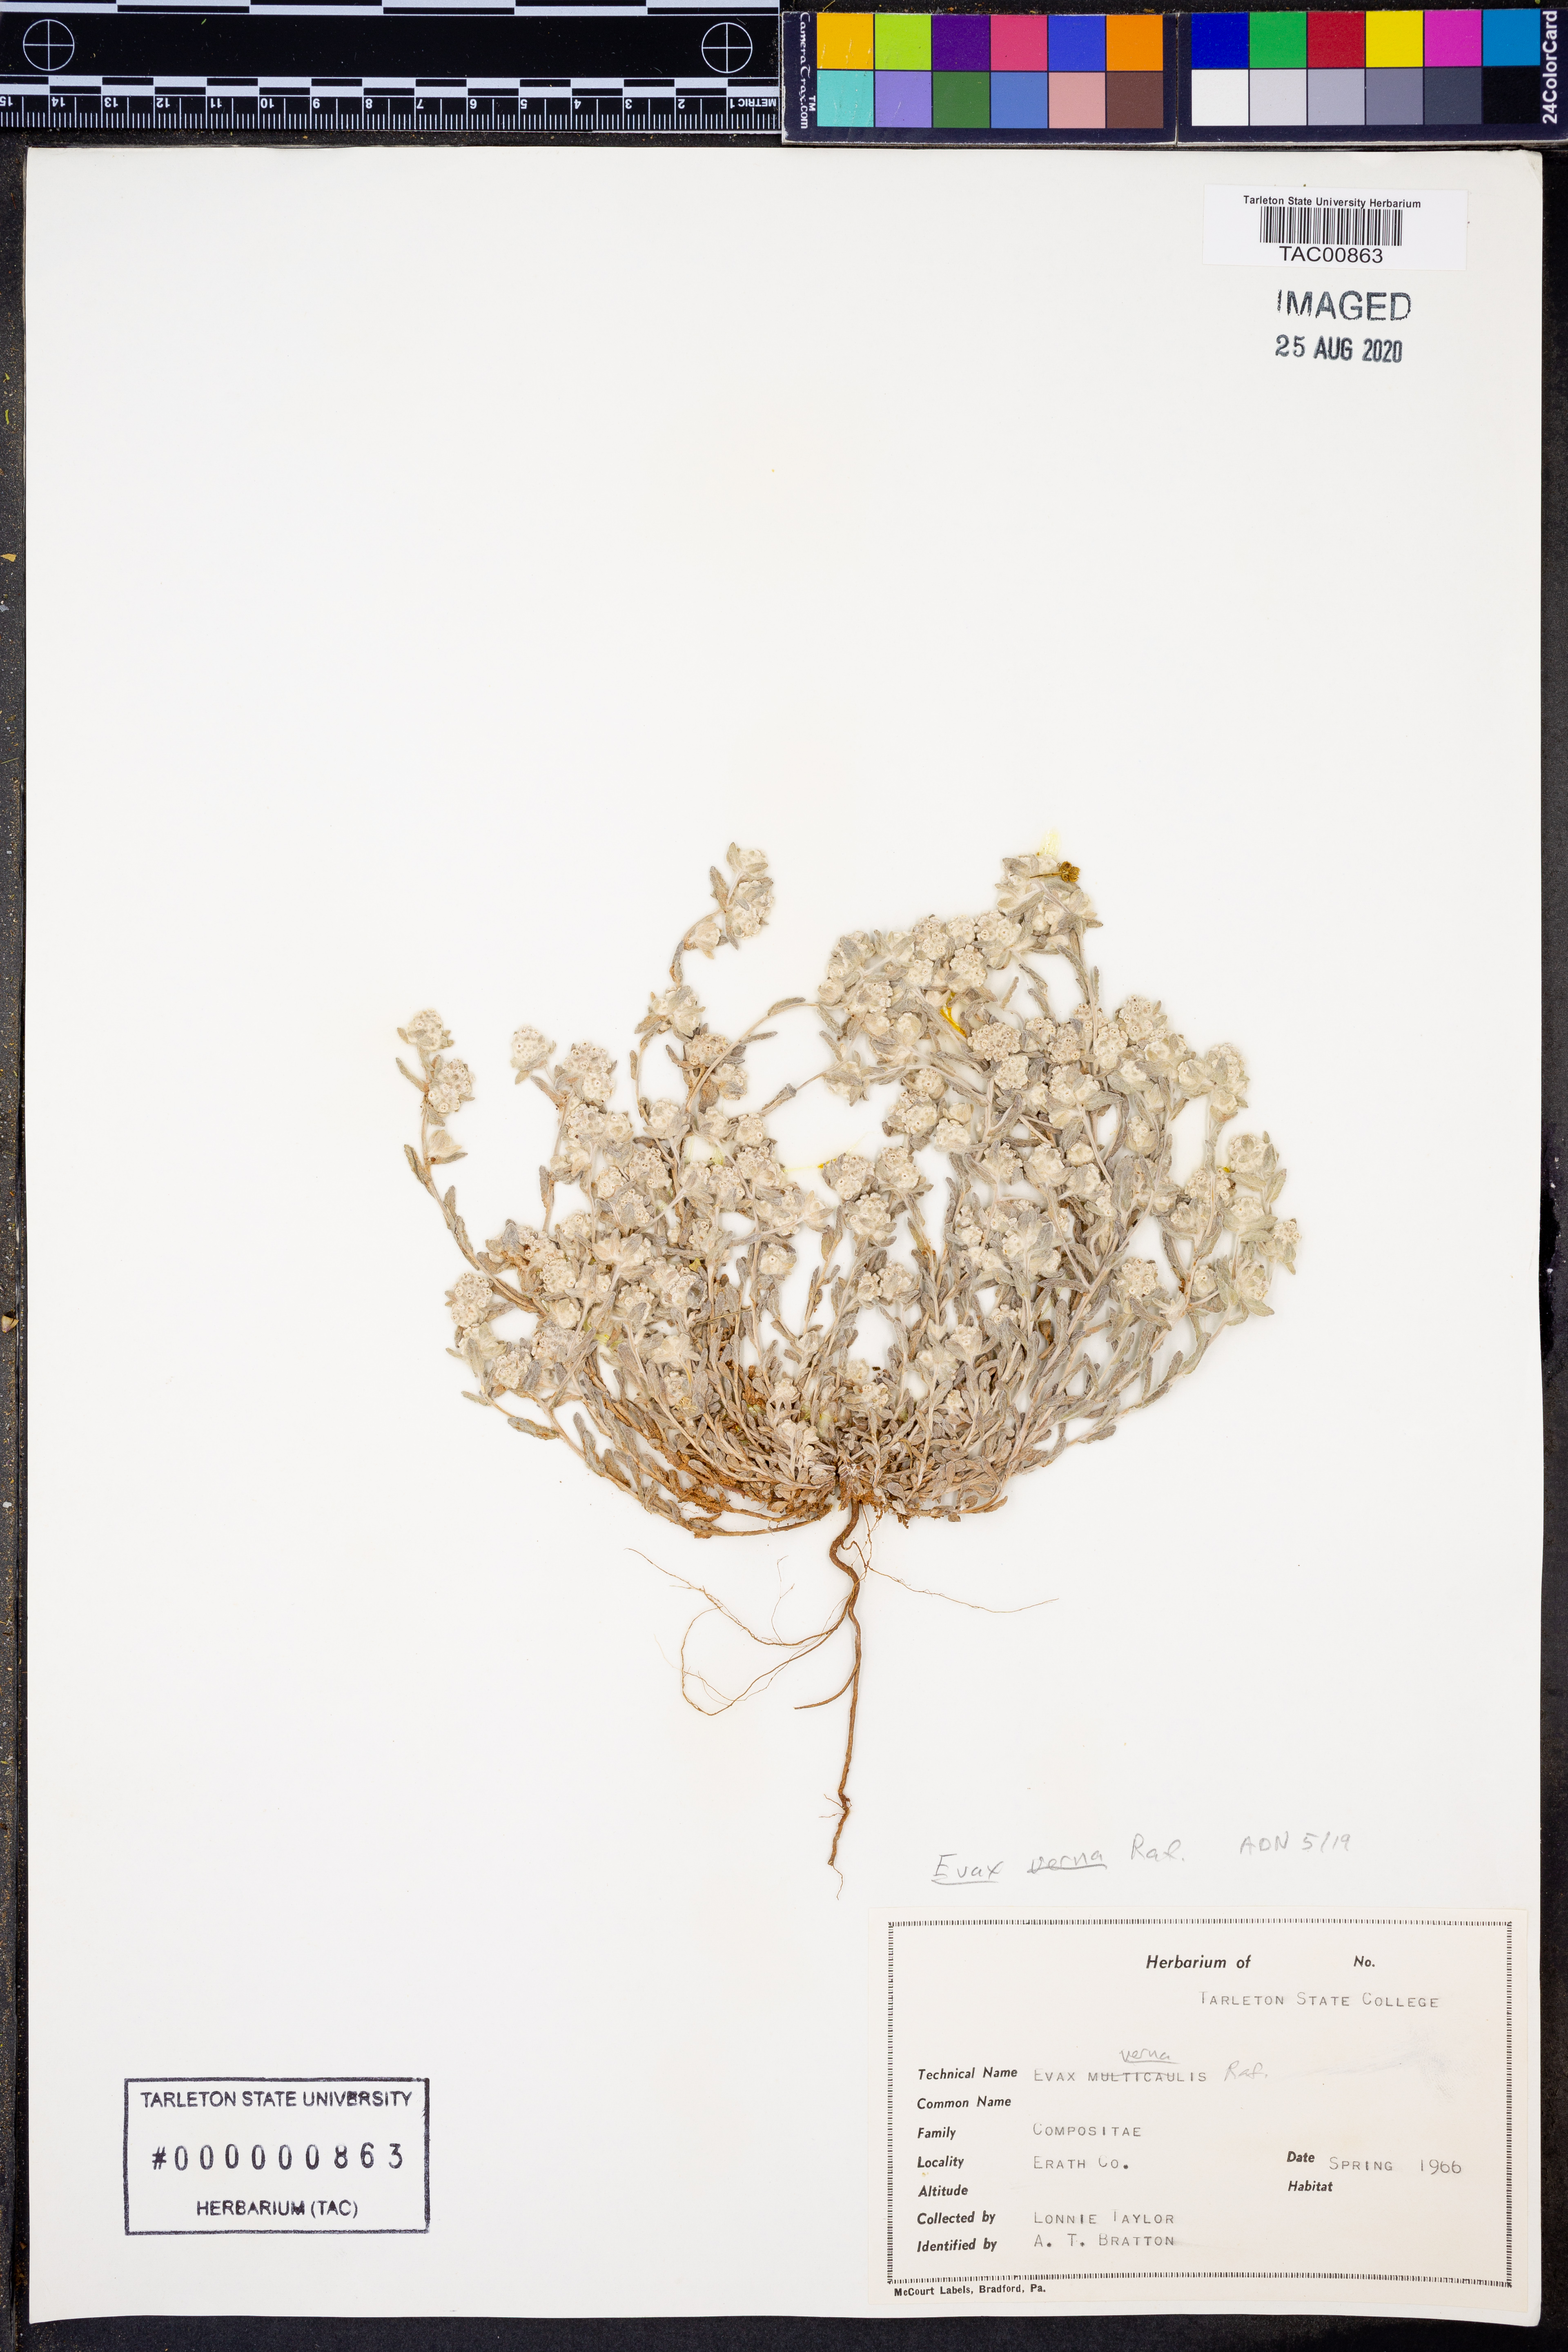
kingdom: Plantae
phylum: Tracheophyta
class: Magnoliopsida
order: Asterales
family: Asteraceae
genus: Diaperia
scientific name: Diaperia verna
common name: Many-stem rabbit-tobacco
